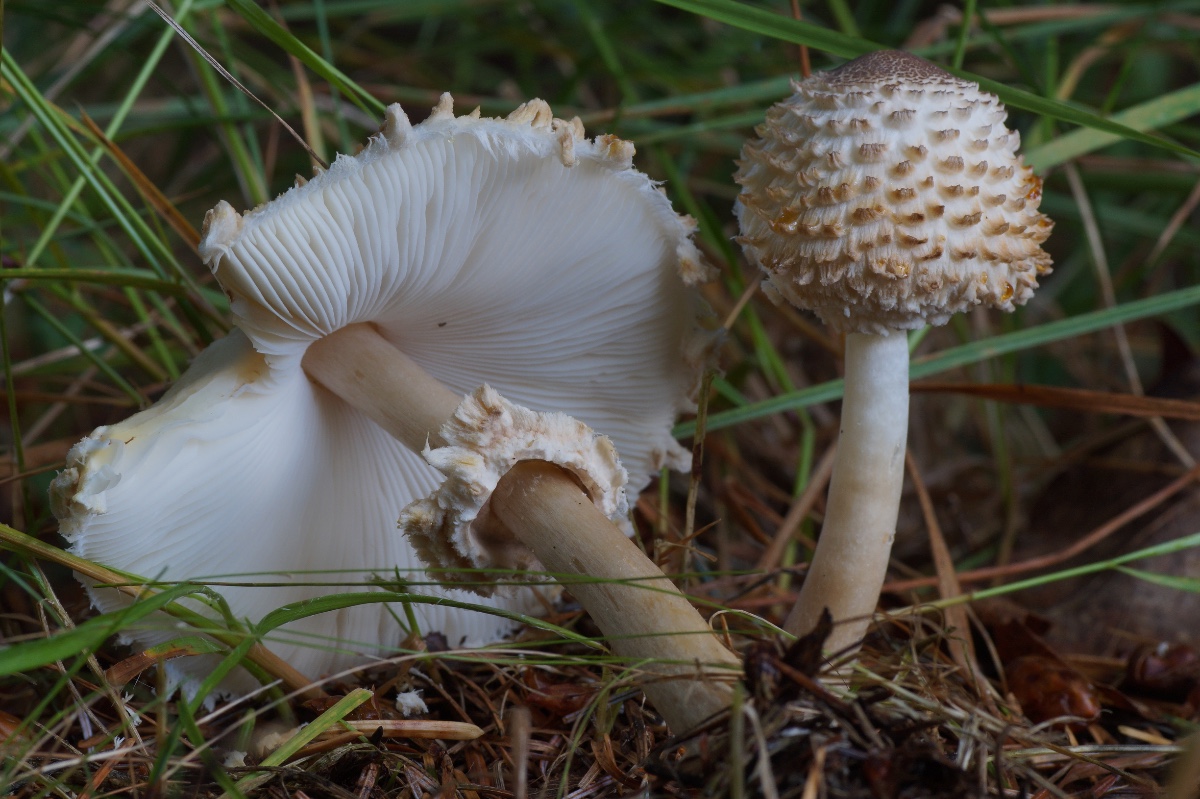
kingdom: Fungi
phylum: Basidiomycota
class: Agaricomycetes
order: Agaricales
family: Agaricaceae
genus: Leucoagaricus
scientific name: Leucoagaricus nympharum
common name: gran-silkehat
